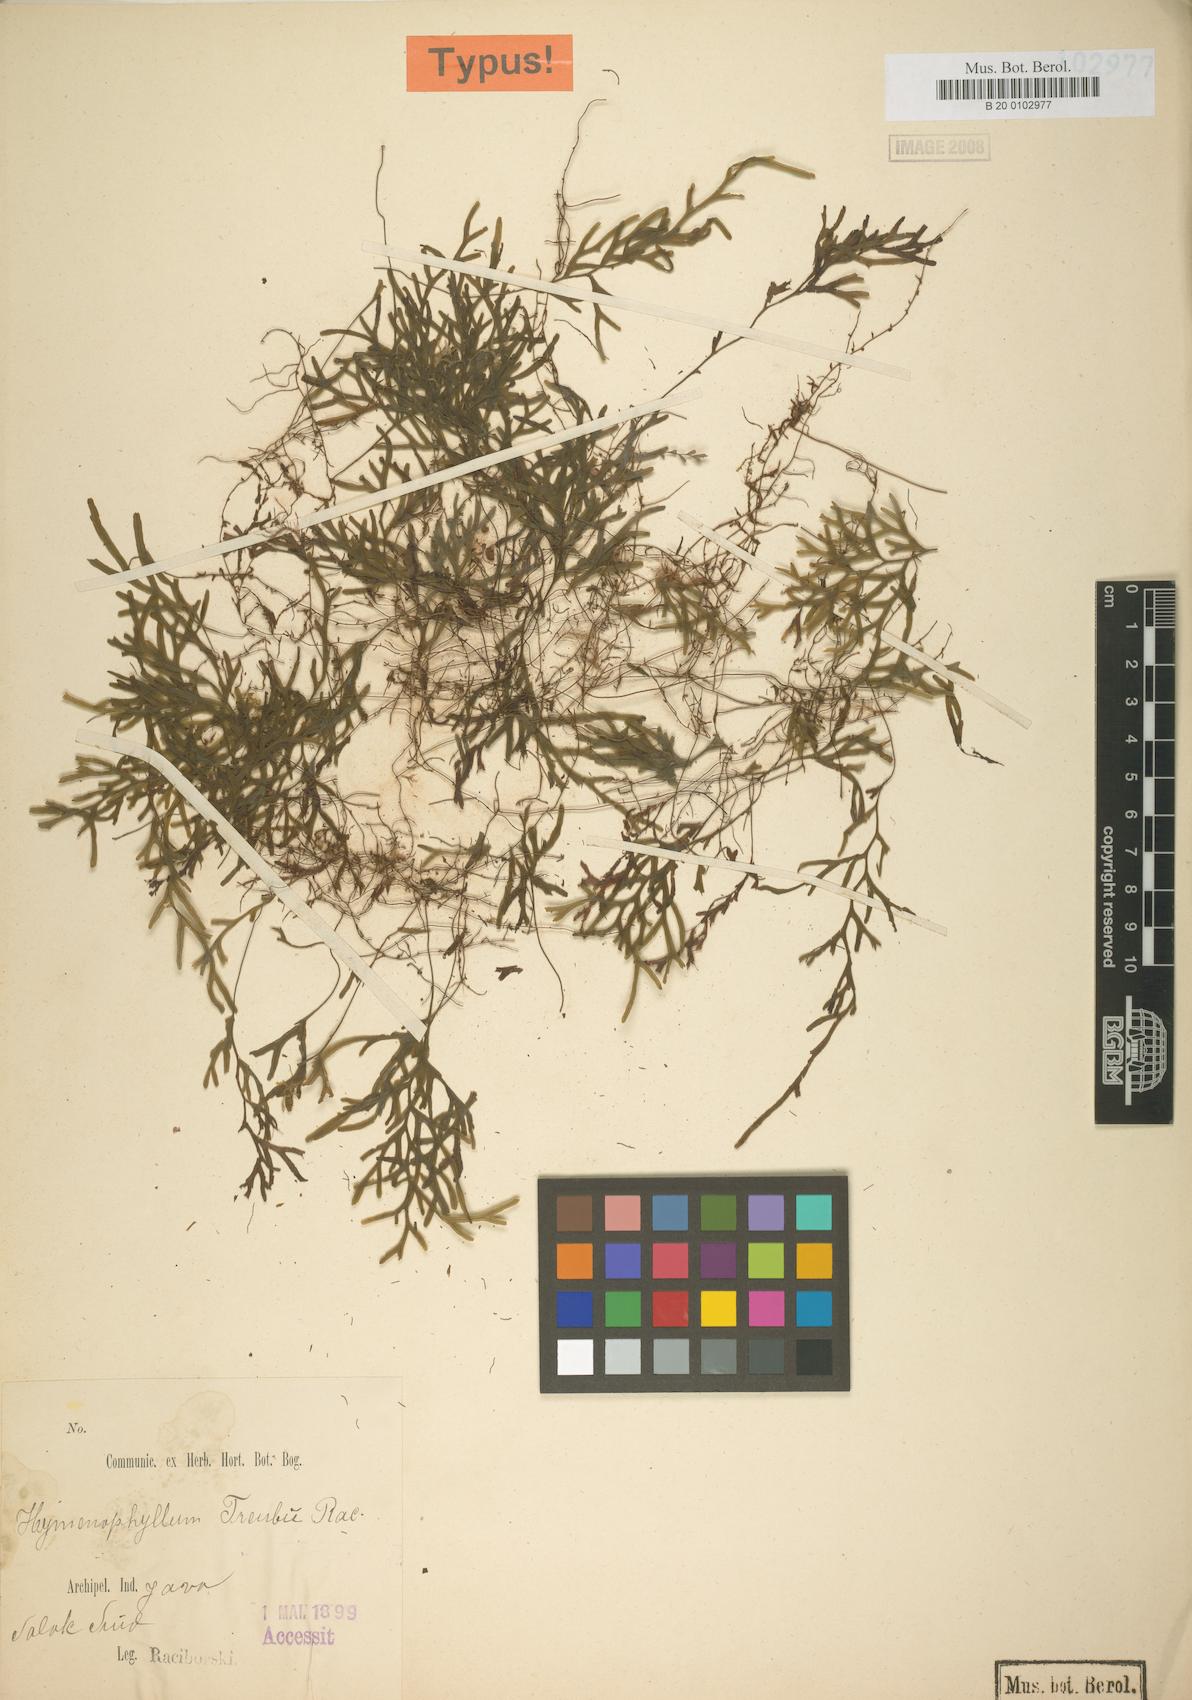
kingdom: Plantae
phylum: Tracheophyta
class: Polypodiopsida
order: Hymenophyllales
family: Hymenophyllaceae
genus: Hymenophyllum
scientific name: Hymenophyllum treubii
